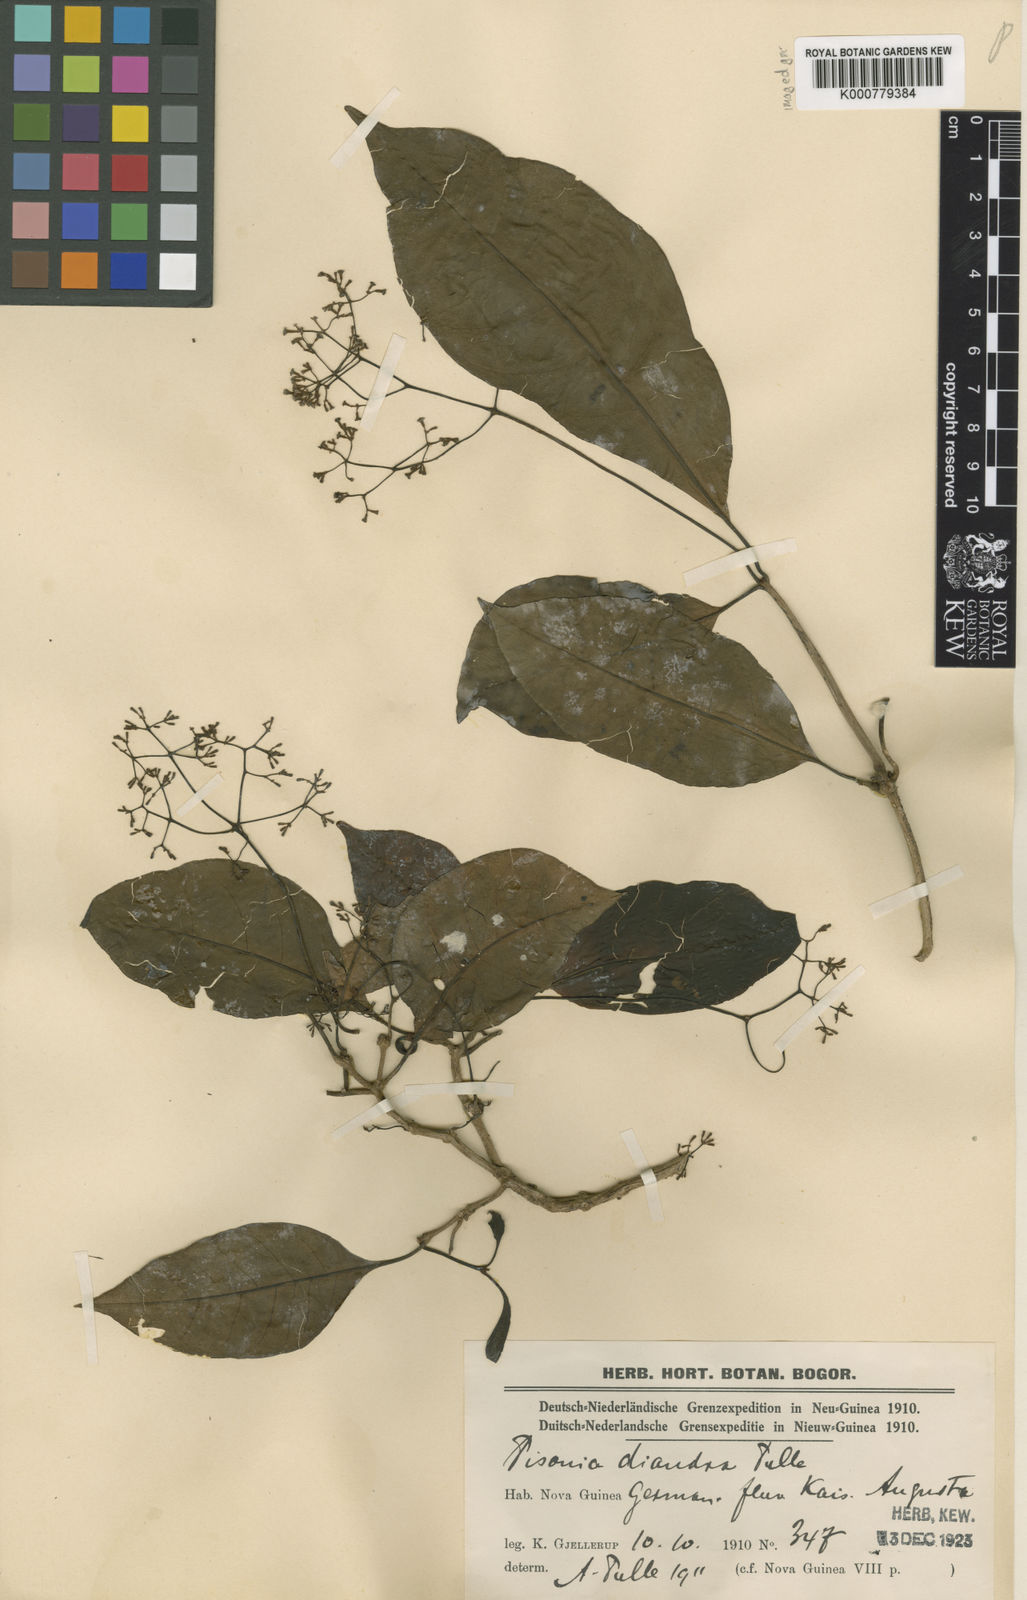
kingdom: Plantae
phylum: Tracheophyta
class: Magnoliopsida
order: Caryophyllales
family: Nyctaginaceae
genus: Ceodes
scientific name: Ceodes diandra
